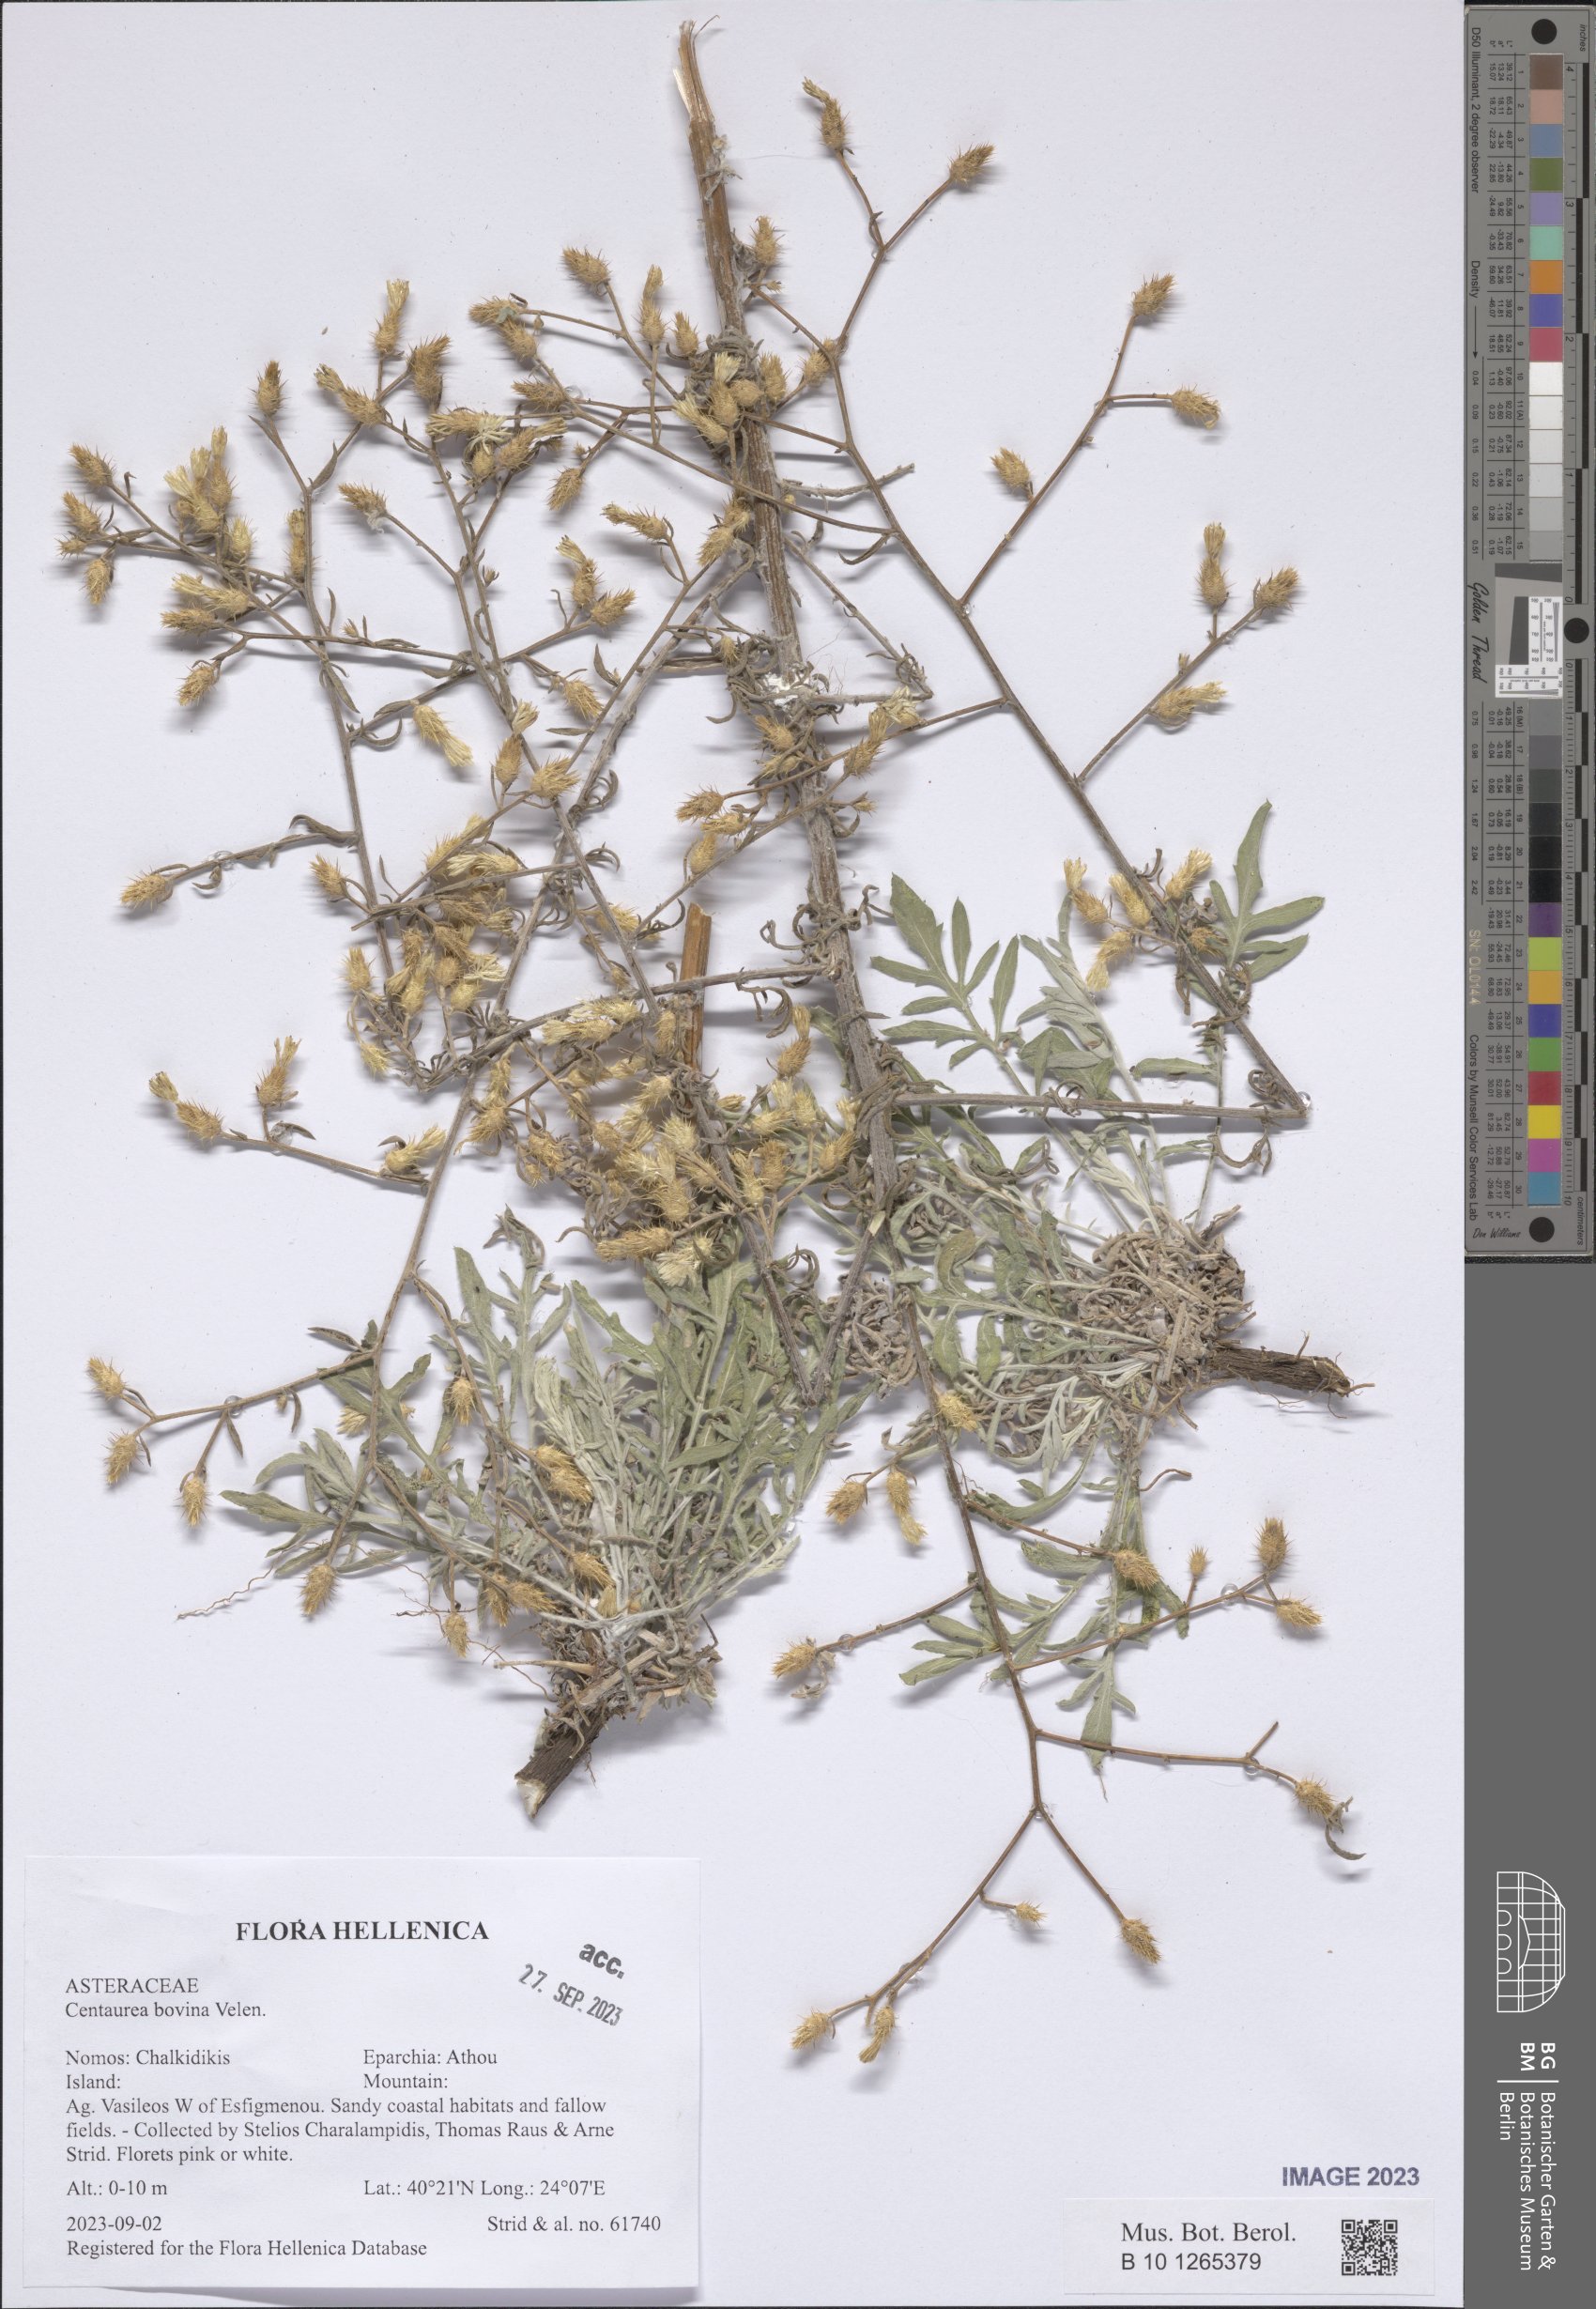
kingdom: Plantae
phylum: Tracheophyta
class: Magnoliopsida
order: Asterales
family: Asteraceae
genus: Centaurea
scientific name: Centaurea bovina
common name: Pasture knapweed
